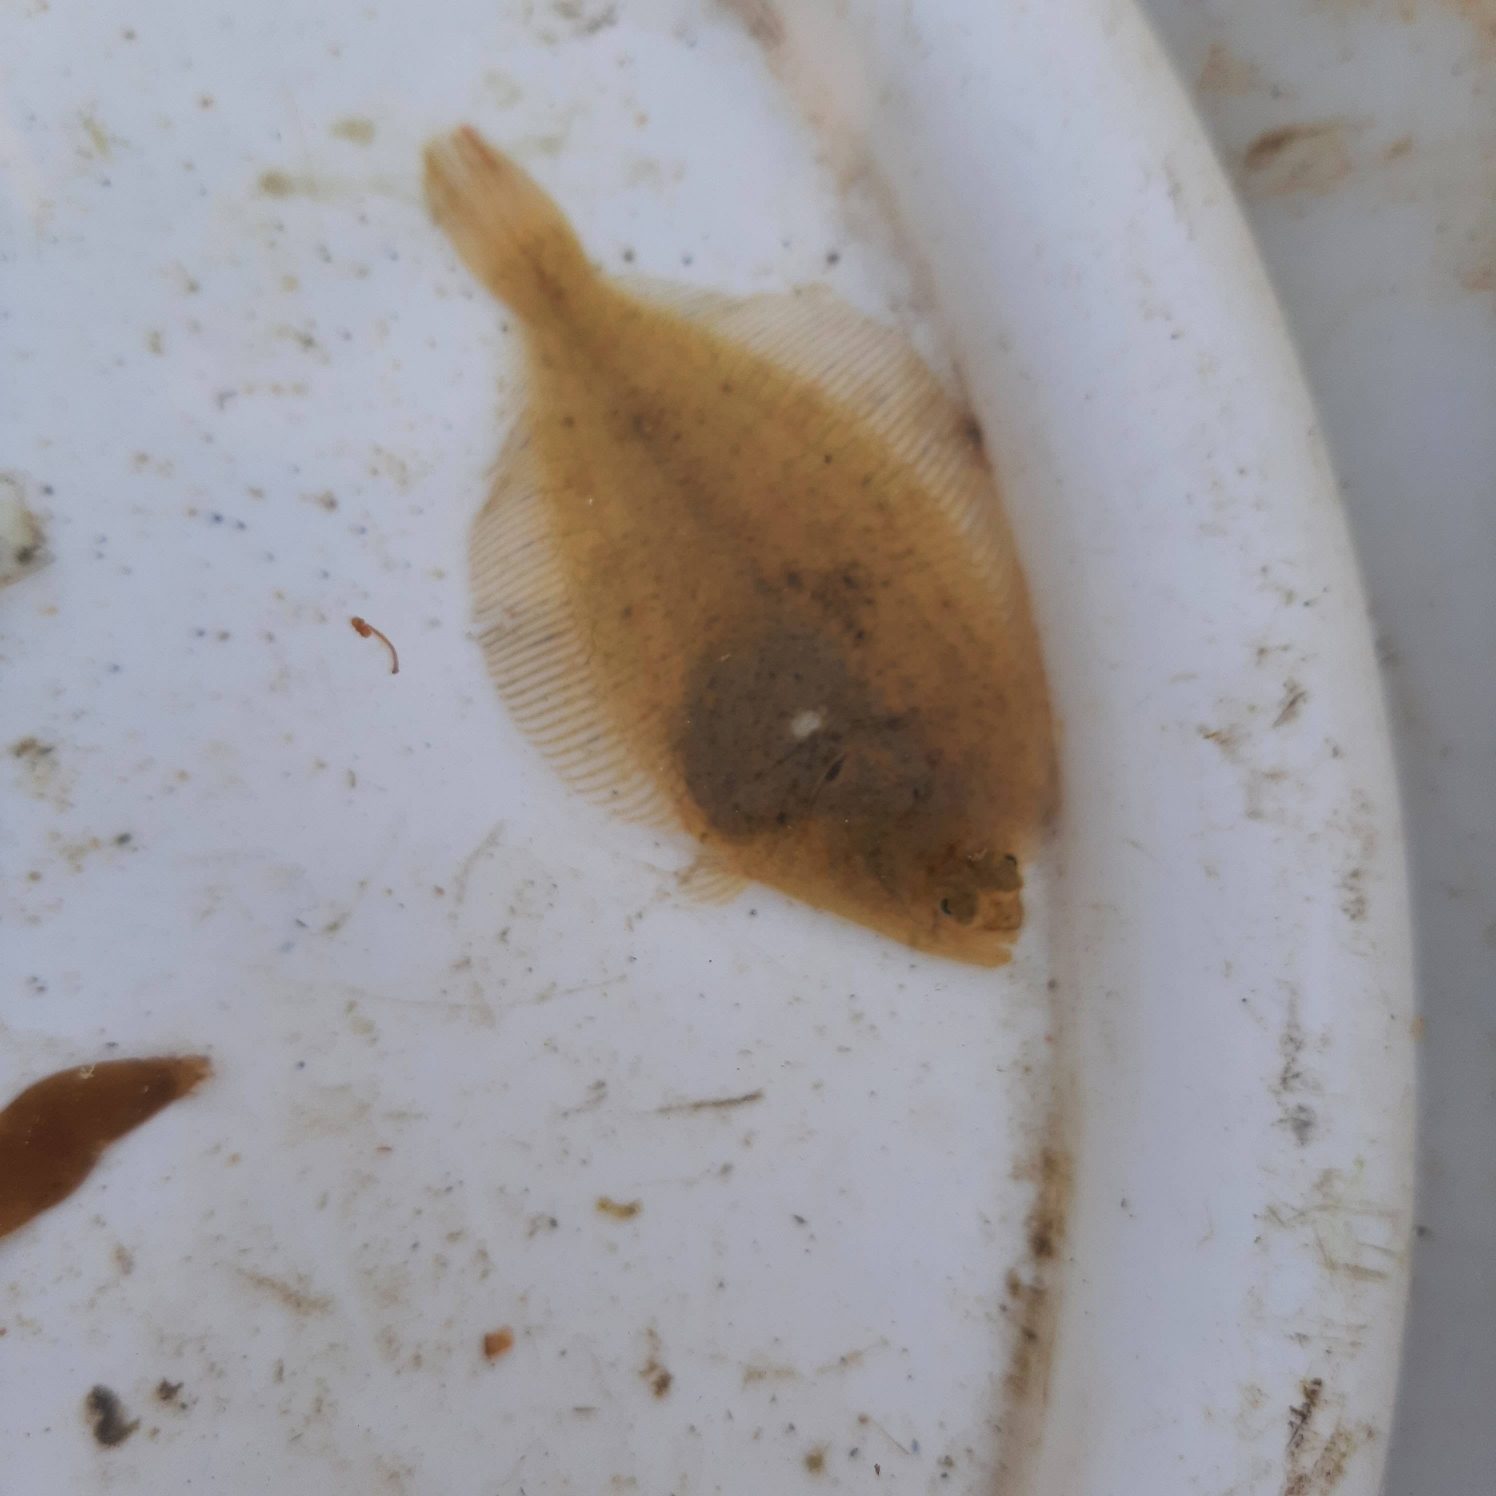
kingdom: Animalia
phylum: Chordata
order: Pleuronectiformes
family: Pleuronectidae
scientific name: Pleuronectidae
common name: Rødspættefamilien
